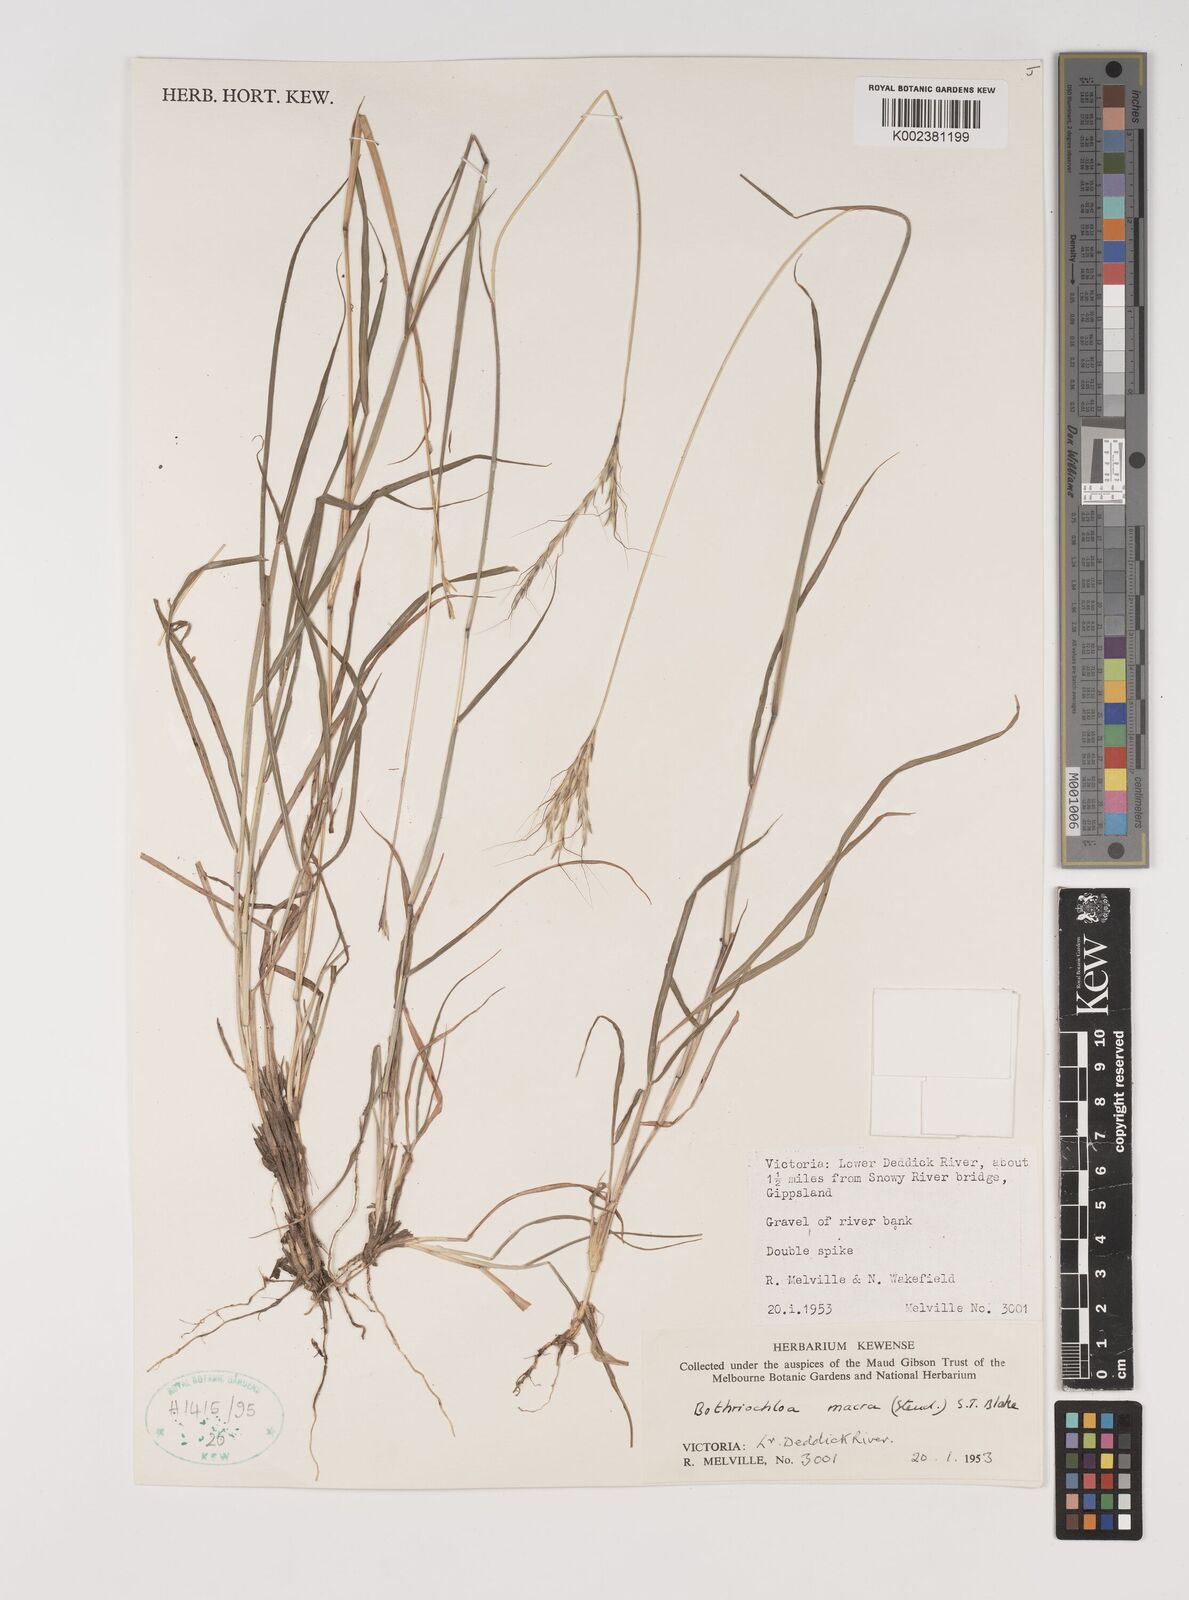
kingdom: Plantae
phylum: Tracheophyta
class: Liliopsida
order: Poales
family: Poaceae
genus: Bothriochloa
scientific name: Bothriochloa macra
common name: Pitted beard grass
